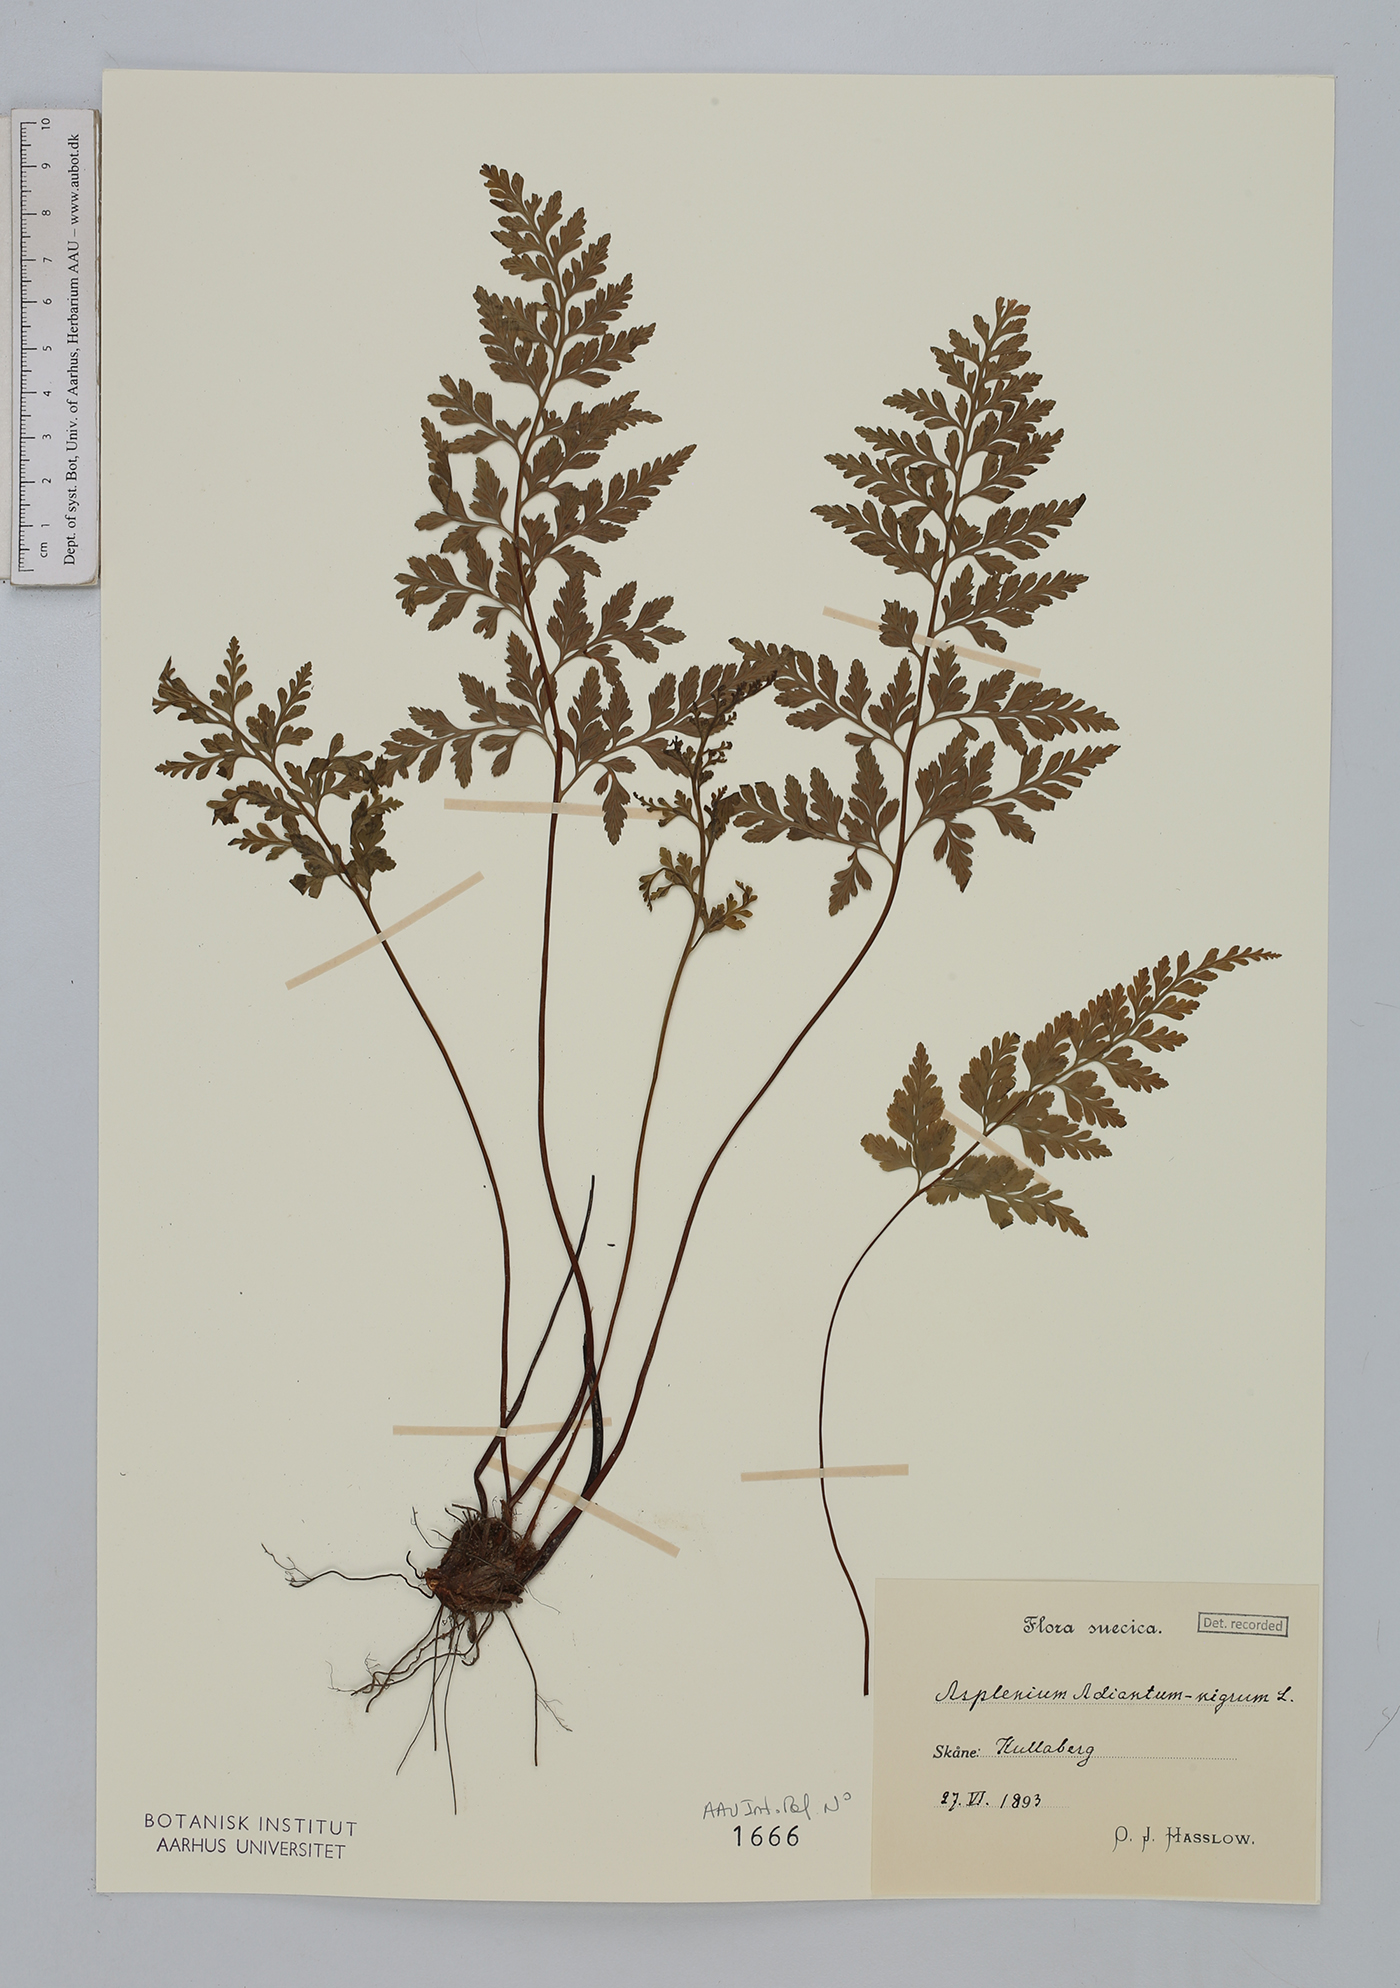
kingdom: Plantae
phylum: Tracheophyta
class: Polypodiopsida
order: Polypodiales
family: Aspleniaceae
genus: Asplenium
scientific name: Asplenium adiantum-nigrum
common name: Black spleenwort
